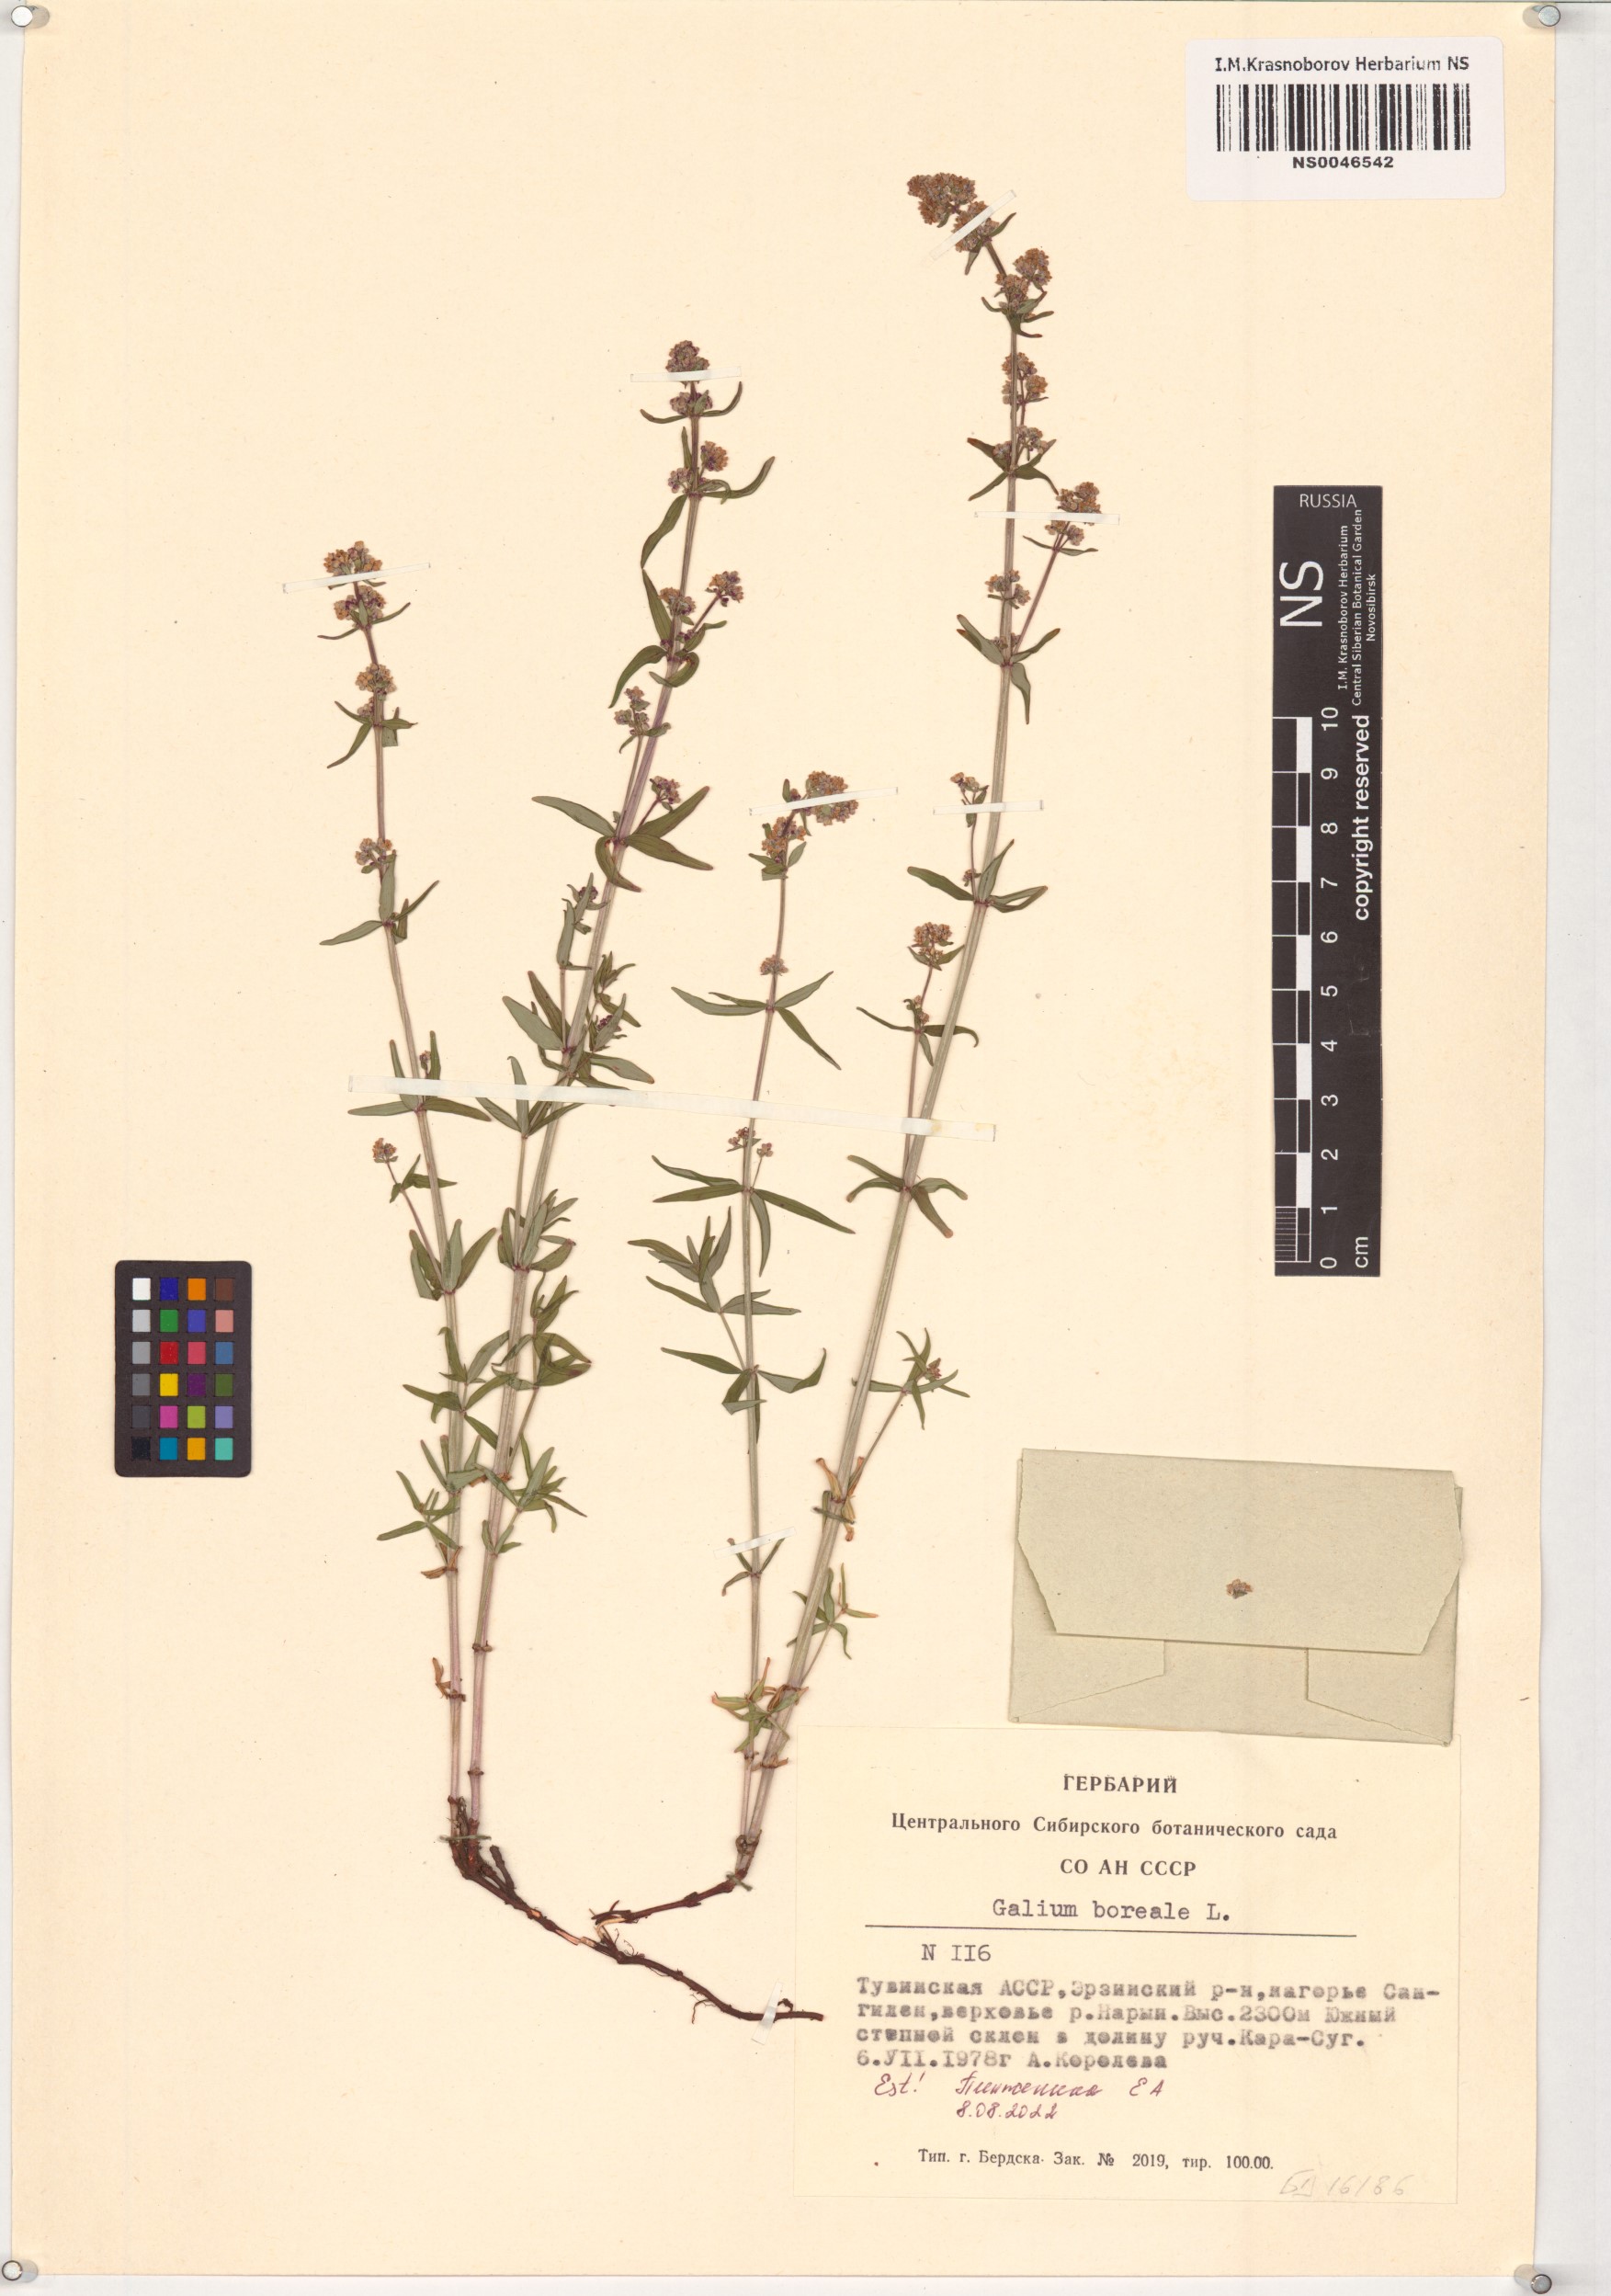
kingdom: Plantae
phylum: Tracheophyta
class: Magnoliopsida
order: Gentianales
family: Rubiaceae
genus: Galium
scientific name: Galium aparine
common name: Cleavers
